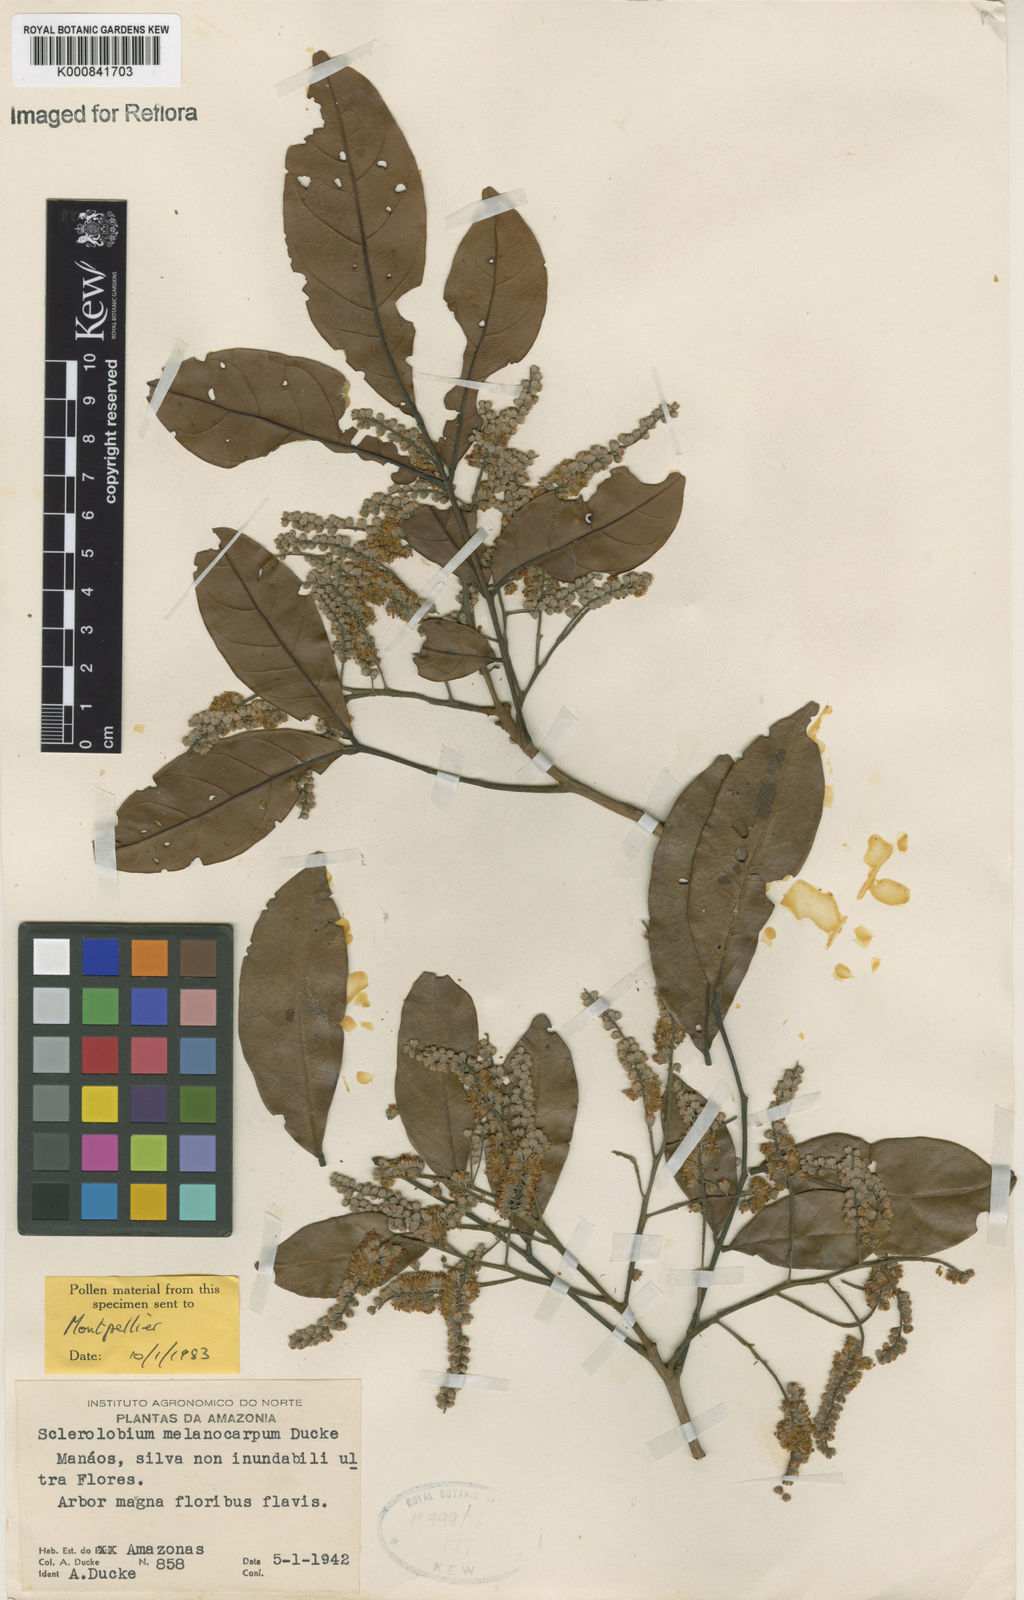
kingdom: Plantae
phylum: Tracheophyta
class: Magnoliopsida
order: Fabales
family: Fabaceae
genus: Tachigali
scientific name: Tachigali melanocarpa
